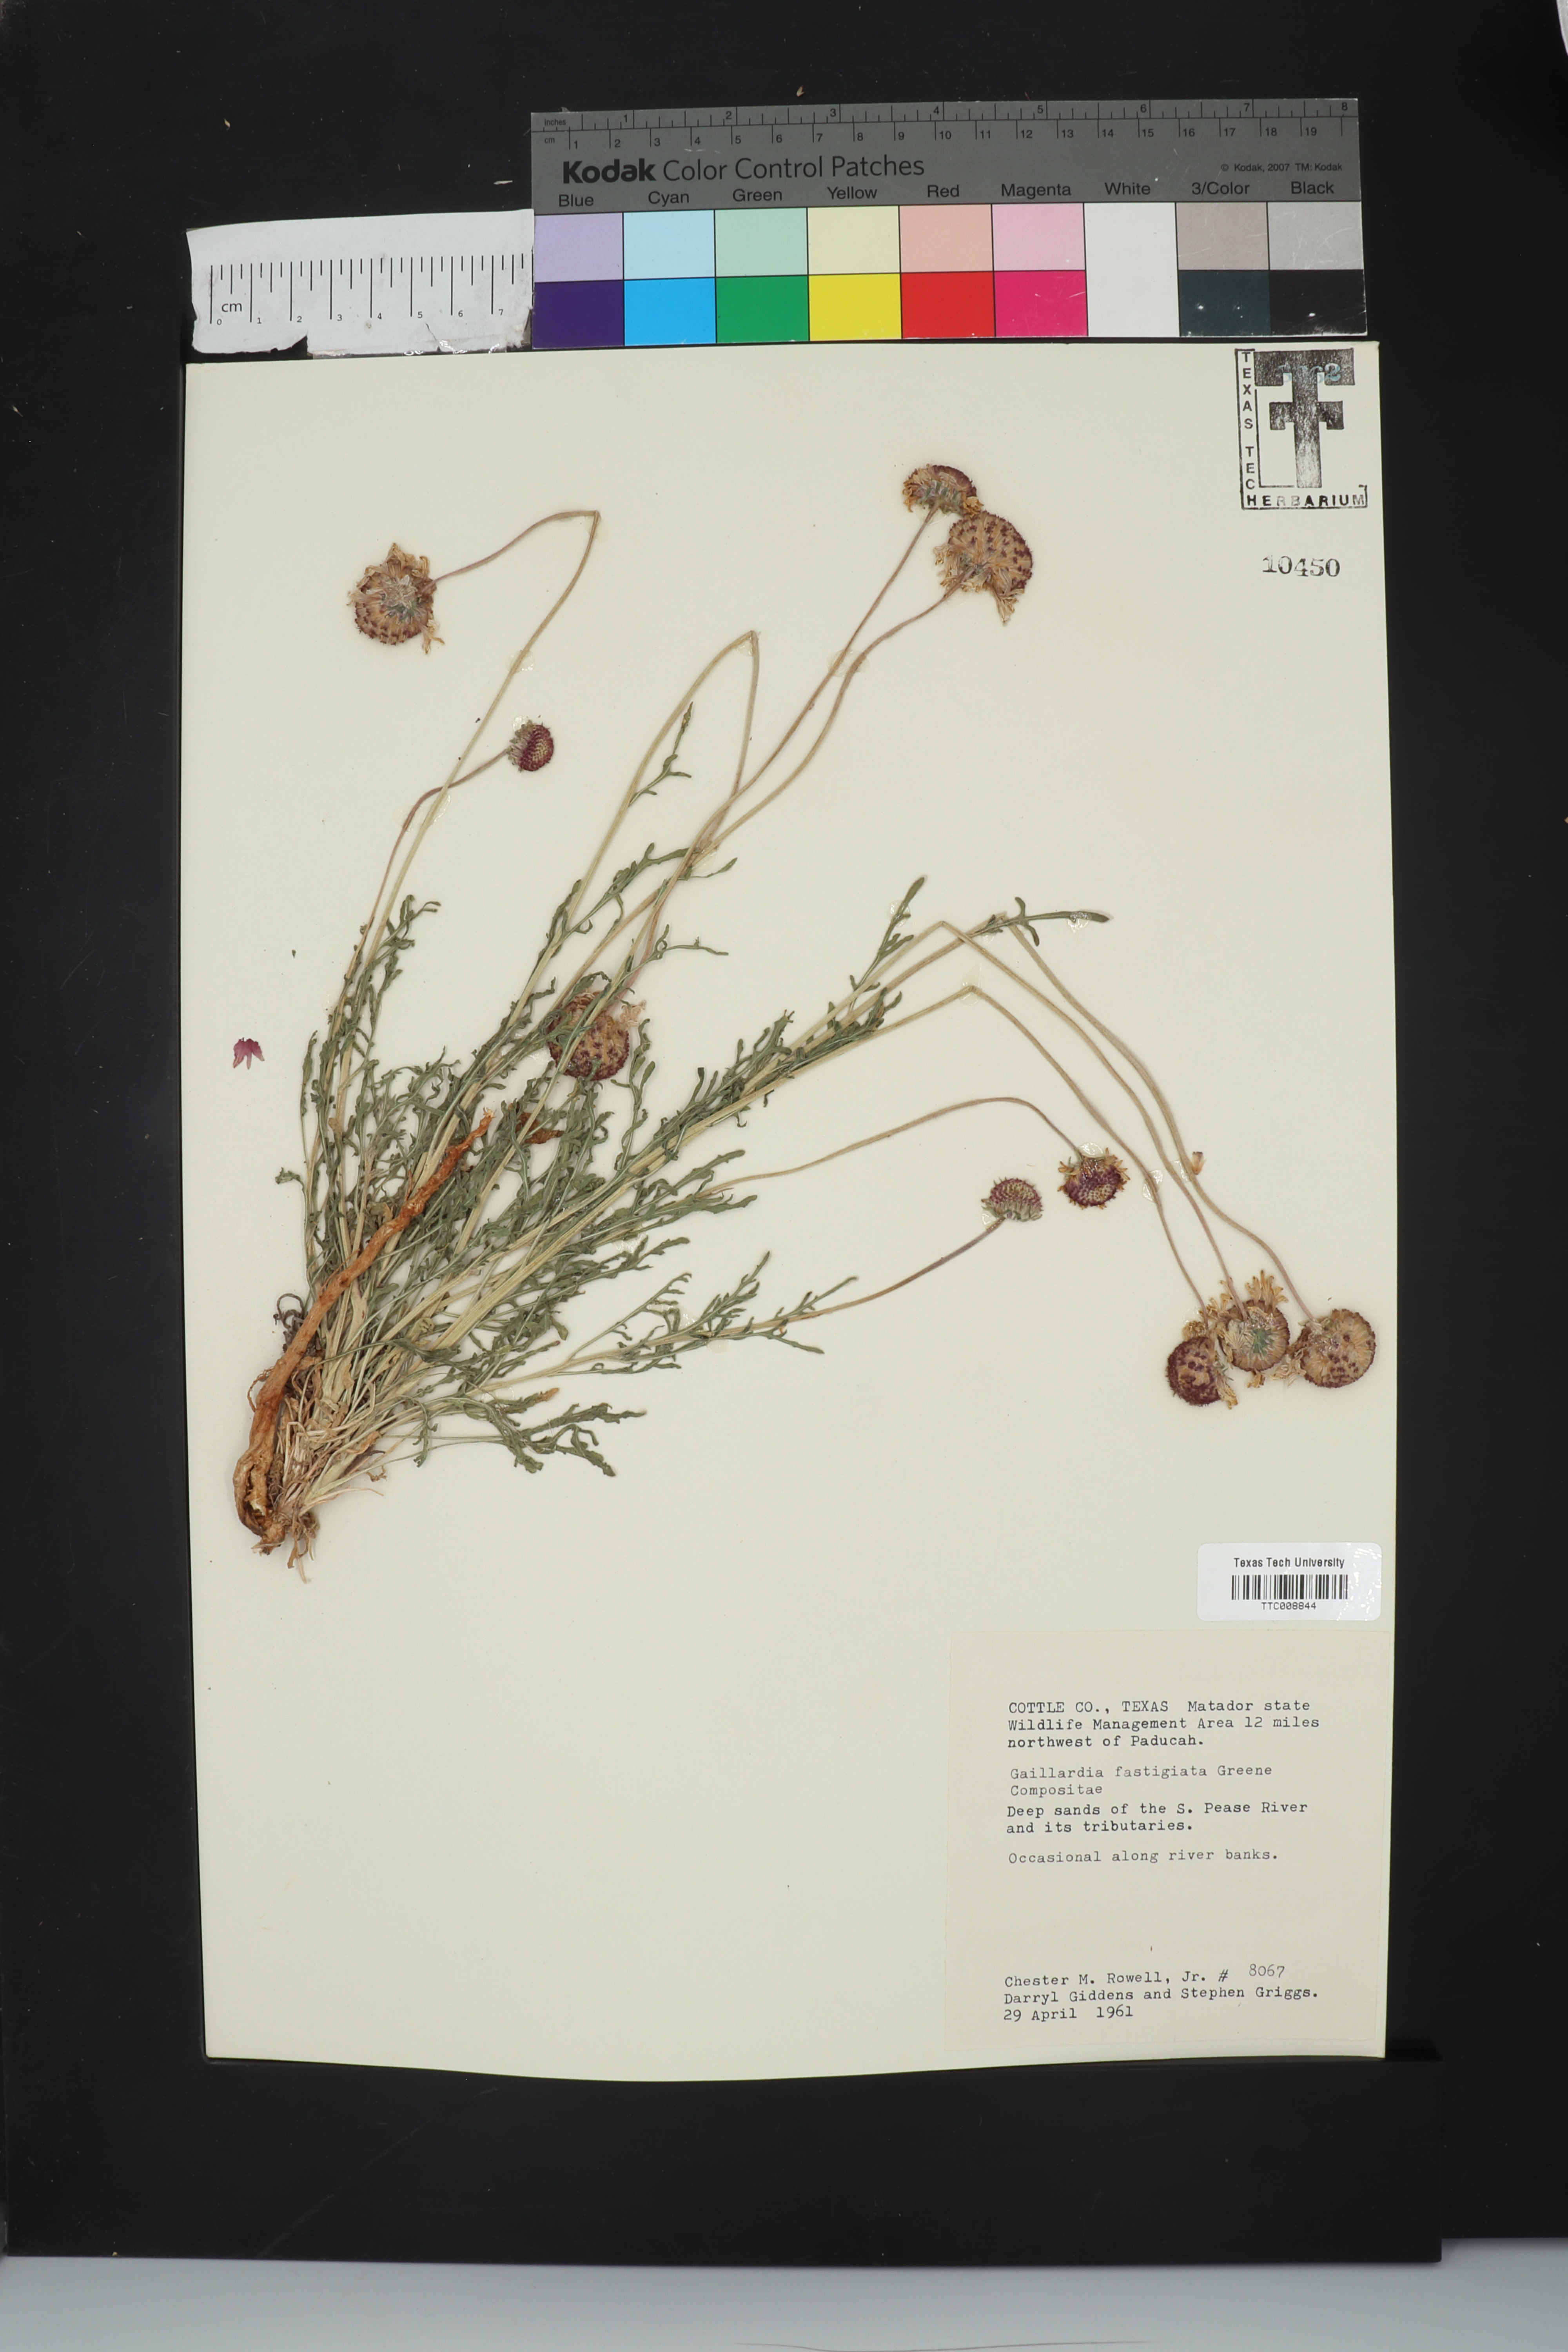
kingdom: Plantae
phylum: Tracheophyta
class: Magnoliopsida
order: Asterales
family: Asteraceae
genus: Gaillardia
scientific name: Gaillardia aestivalis
